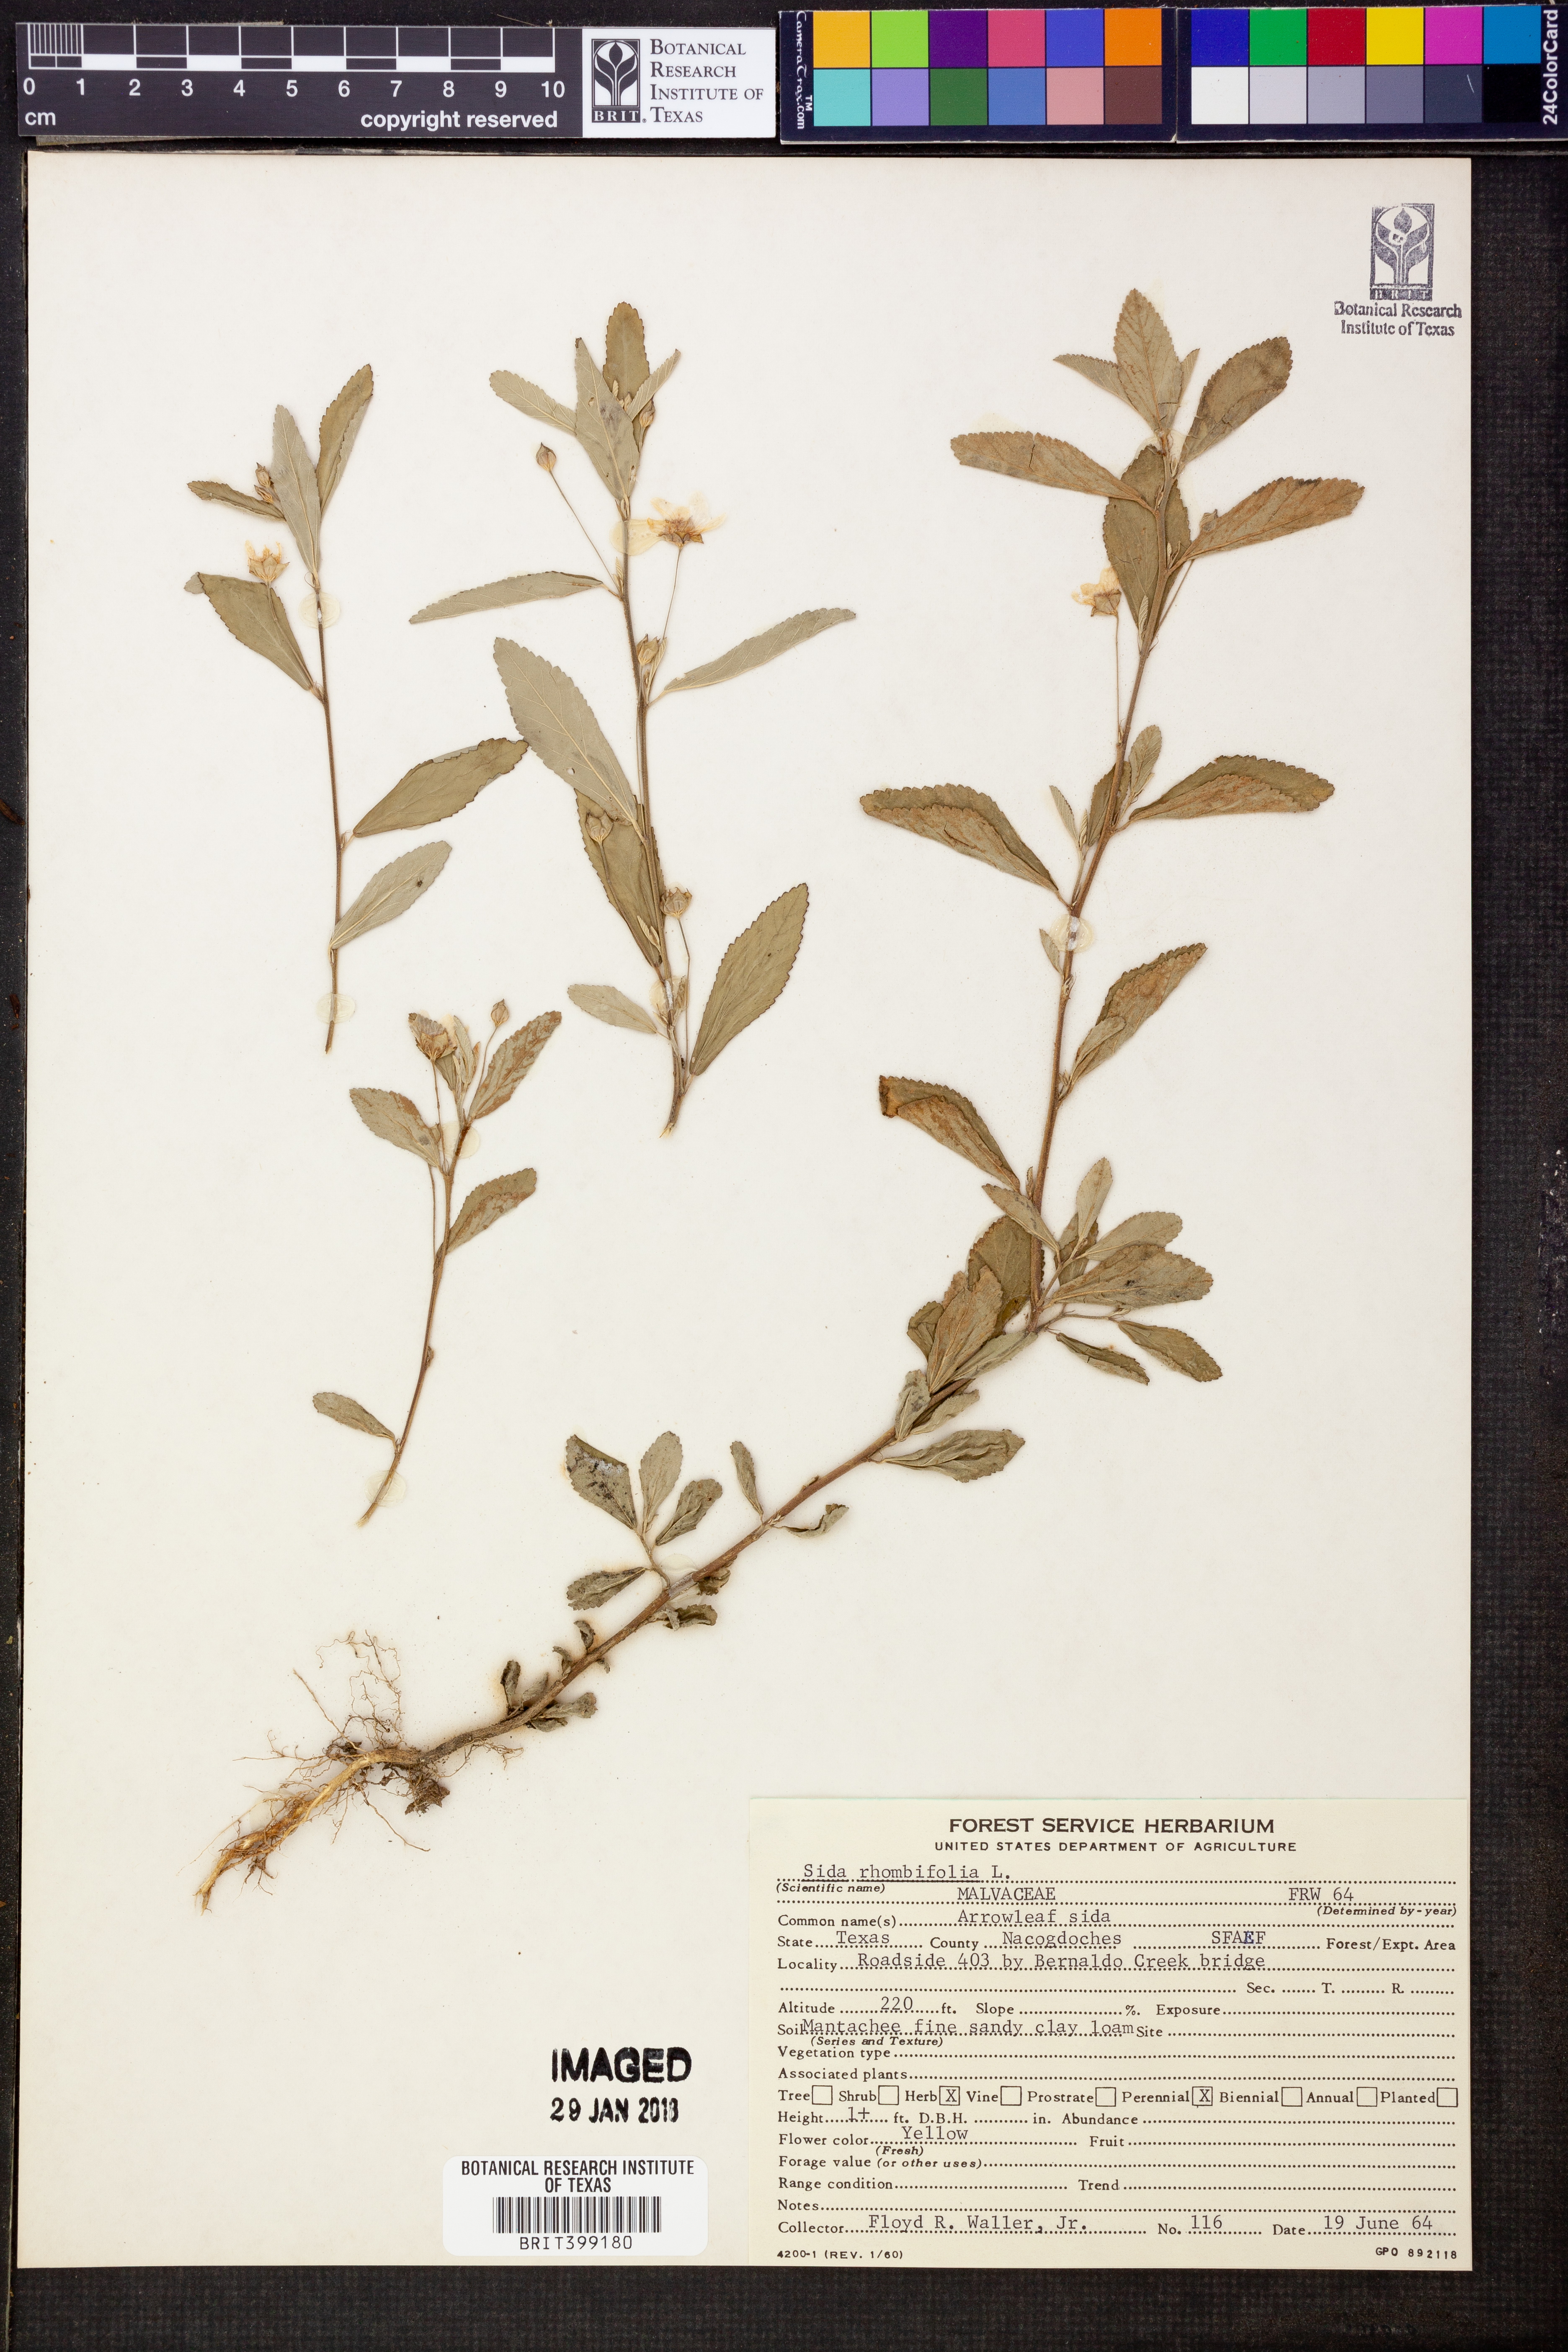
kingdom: Plantae
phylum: Tracheophyta
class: Magnoliopsida
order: Malvales
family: Malvaceae
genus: Sida
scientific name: Sida rhombifolia
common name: Queensland-hemp
